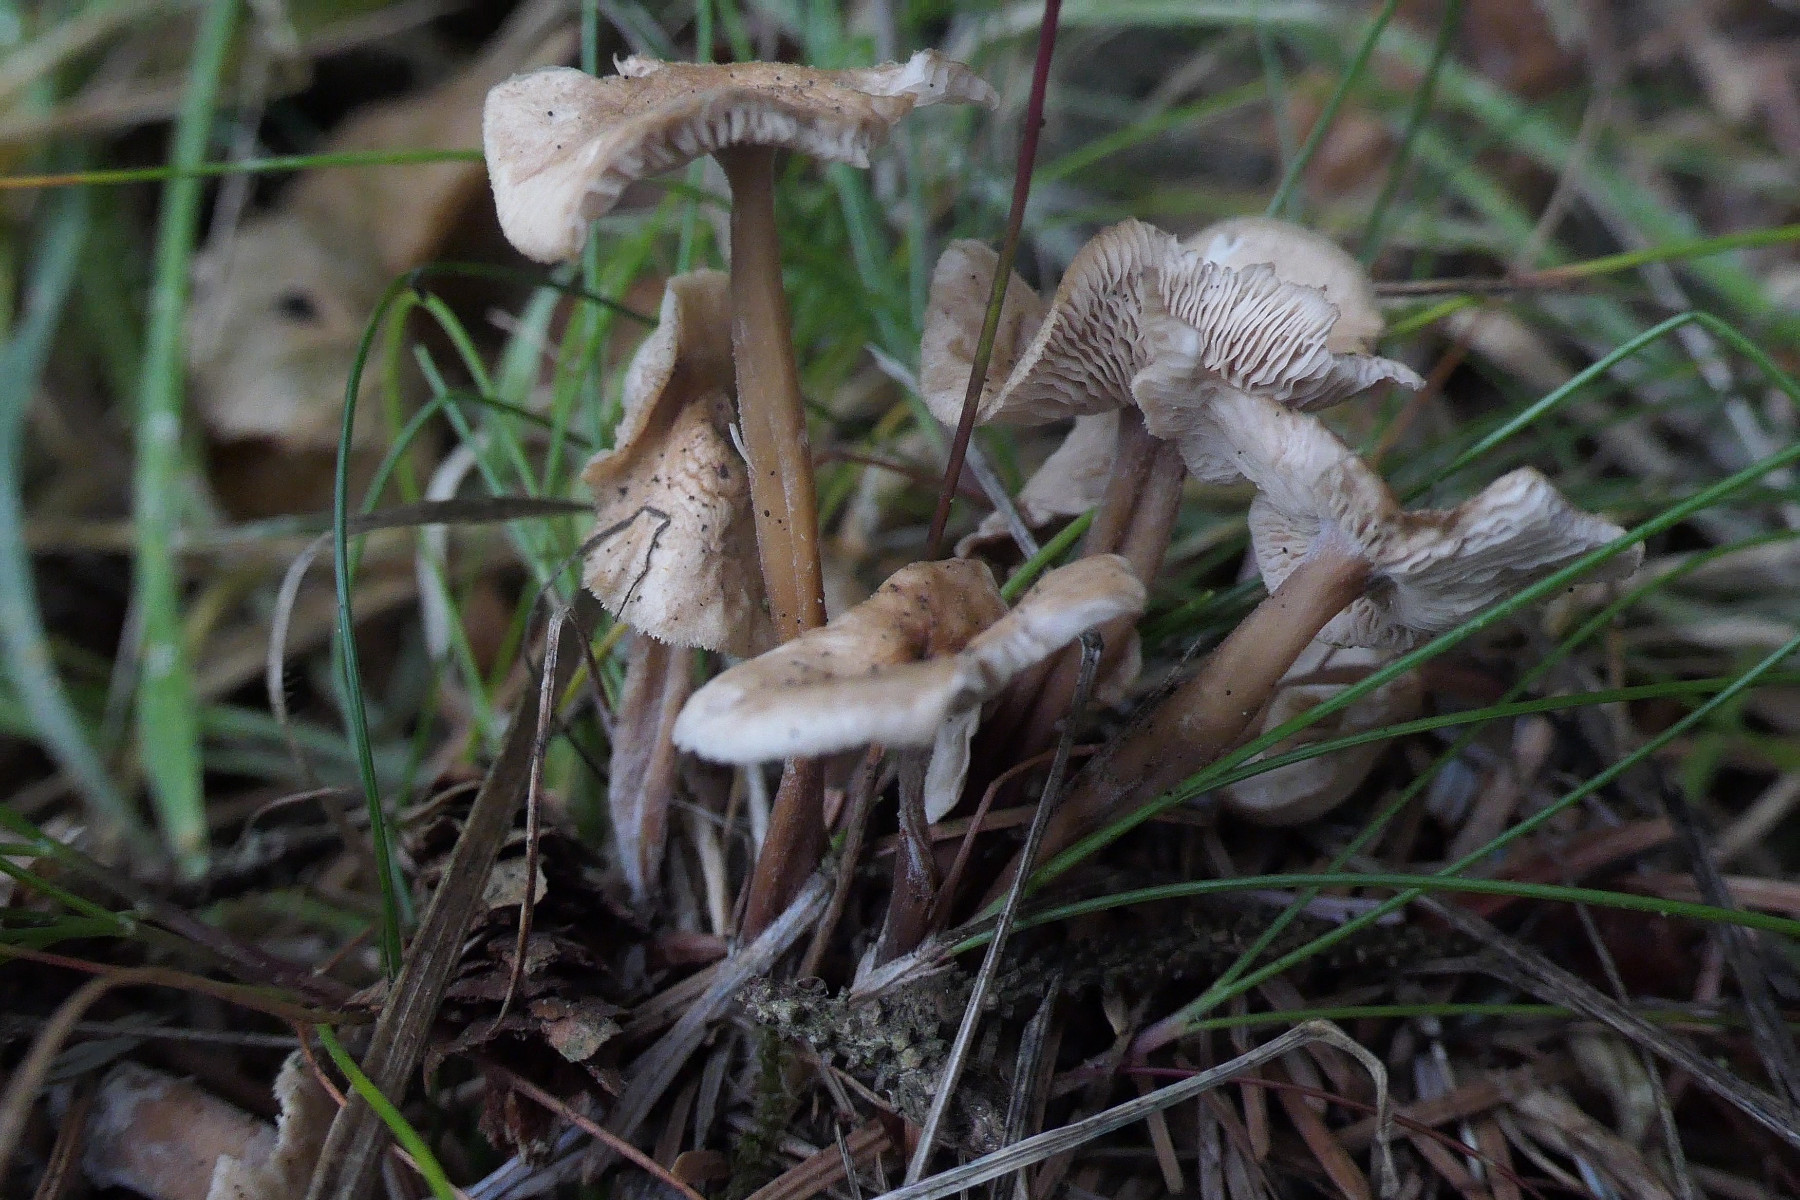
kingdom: Fungi
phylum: Basidiomycota
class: Agaricomycetes
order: Agaricales
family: Omphalotaceae
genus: Collybiopsis
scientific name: Collybiopsis confluens
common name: knippe-fladhat
